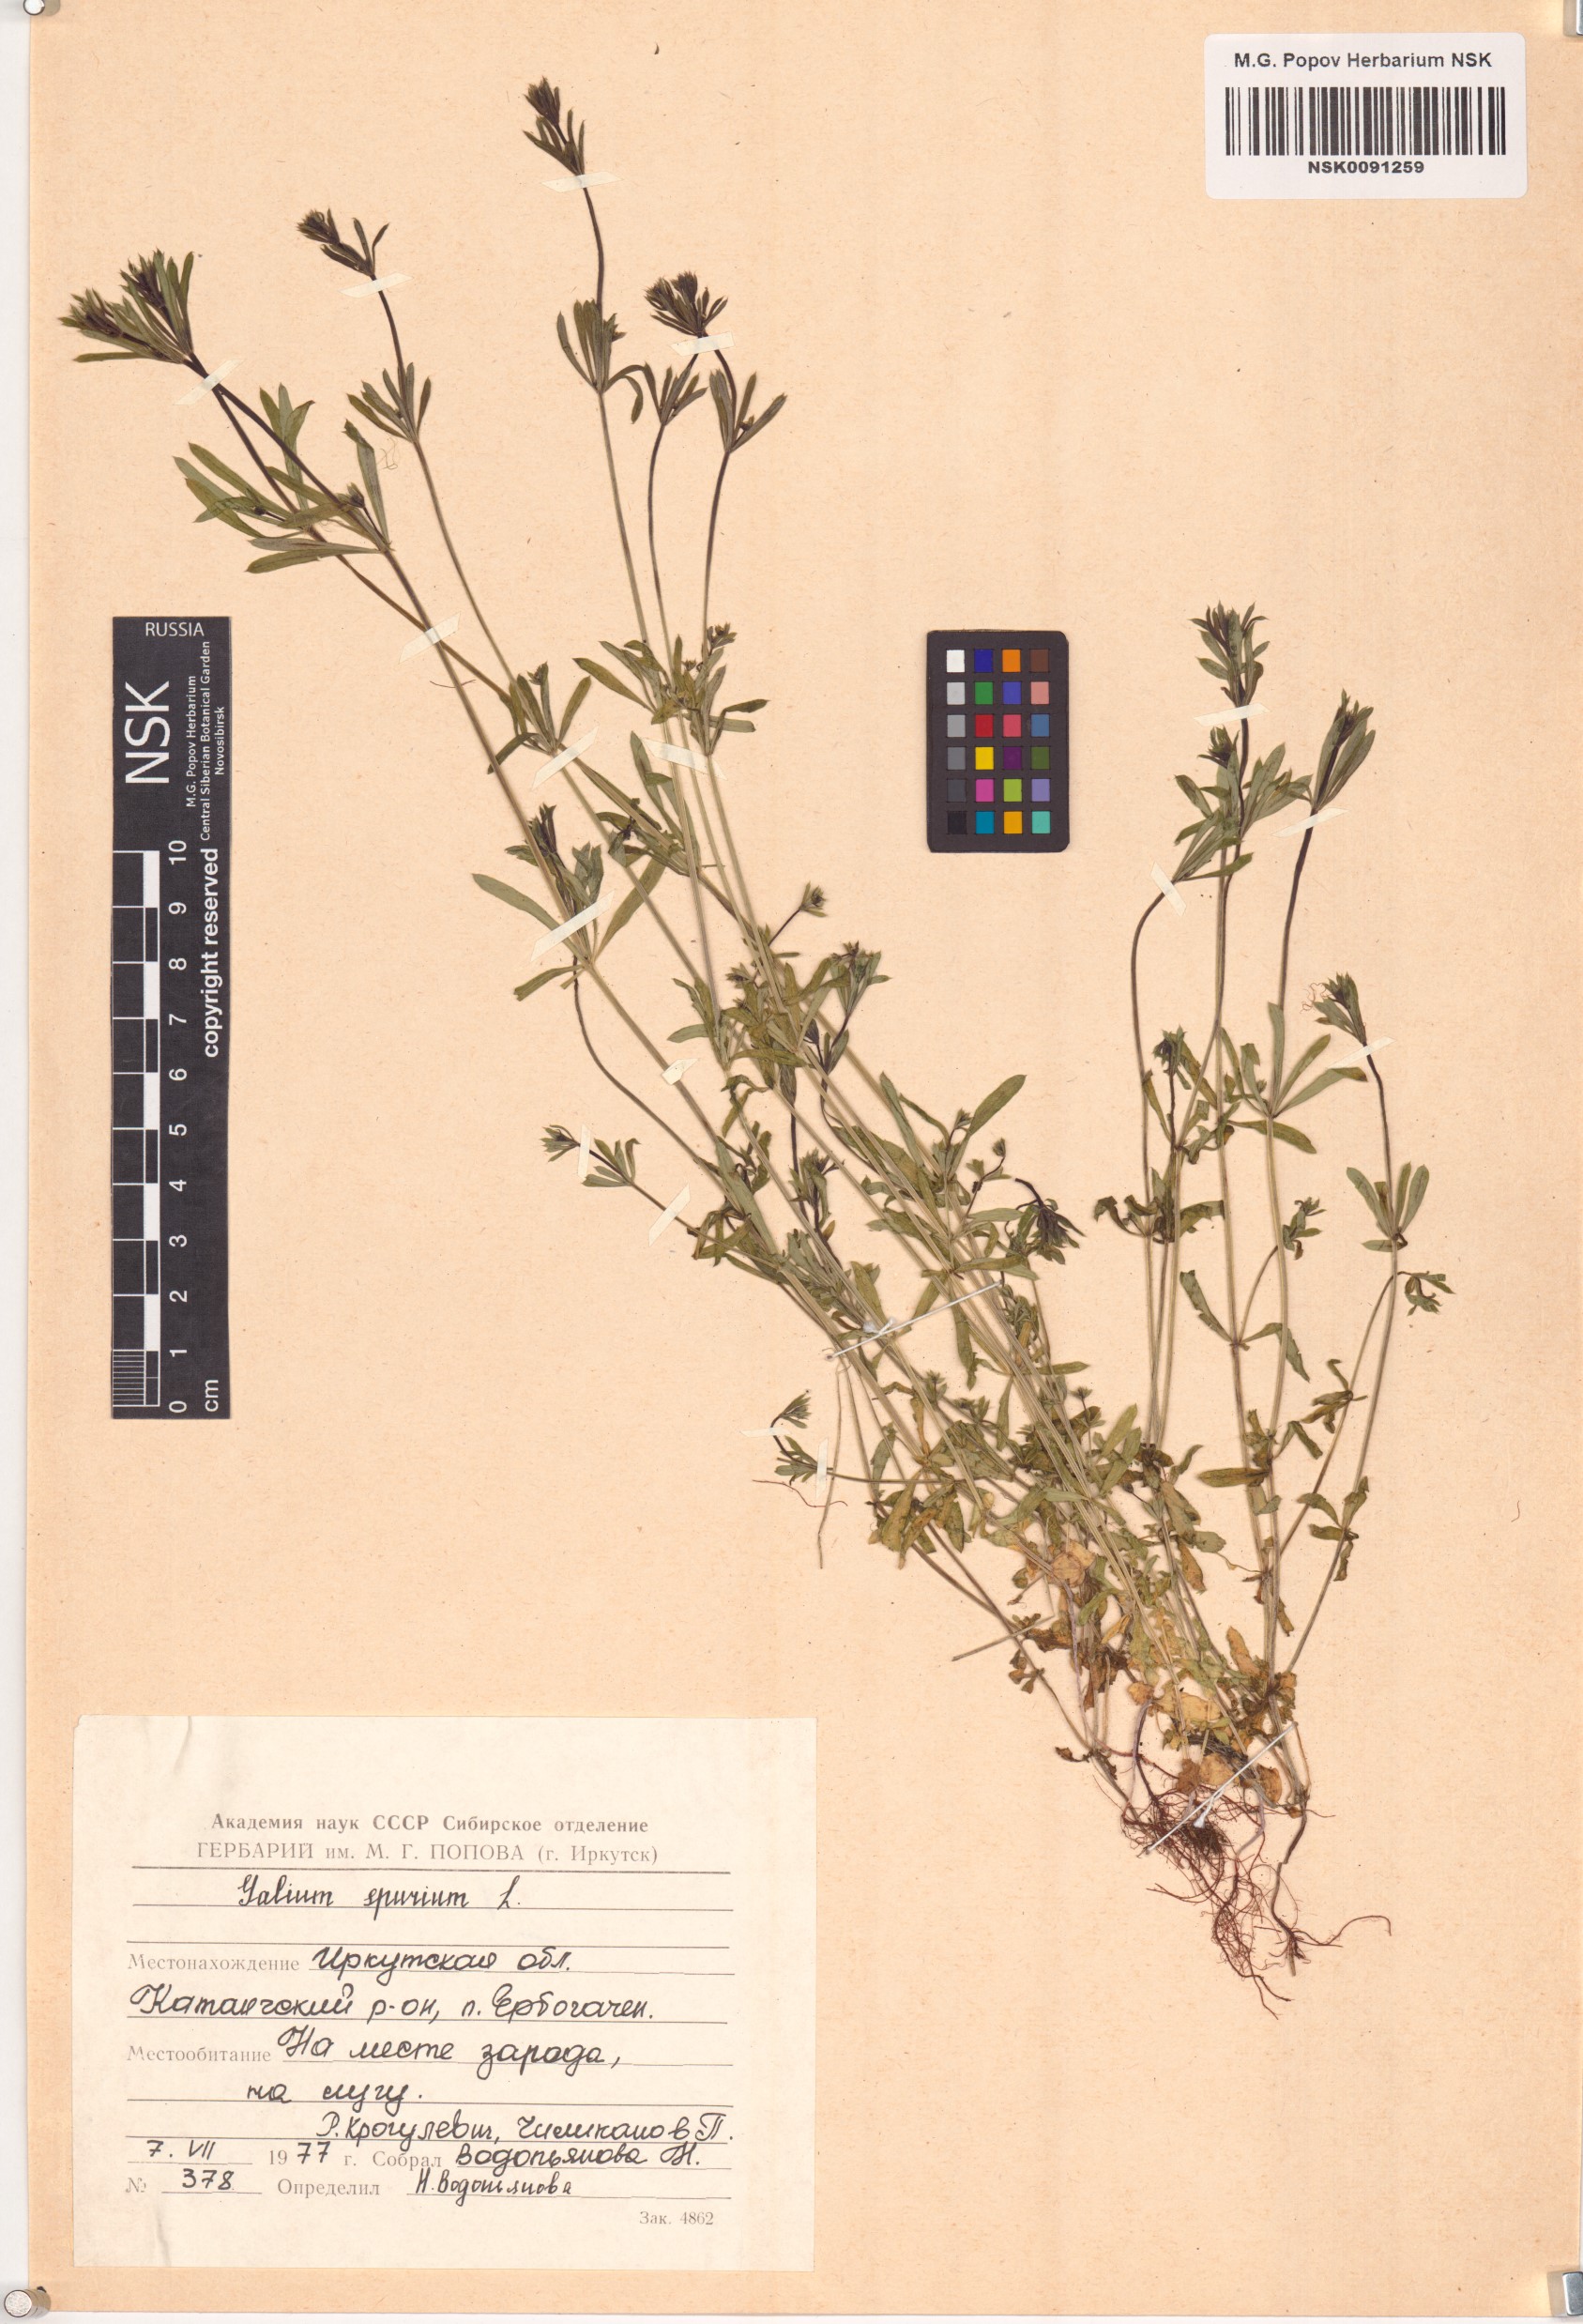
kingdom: Plantae
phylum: Tracheophyta
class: Magnoliopsida
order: Gentianales
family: Rubiaceae
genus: Galium
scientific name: Galium spurium
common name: False cleavers
